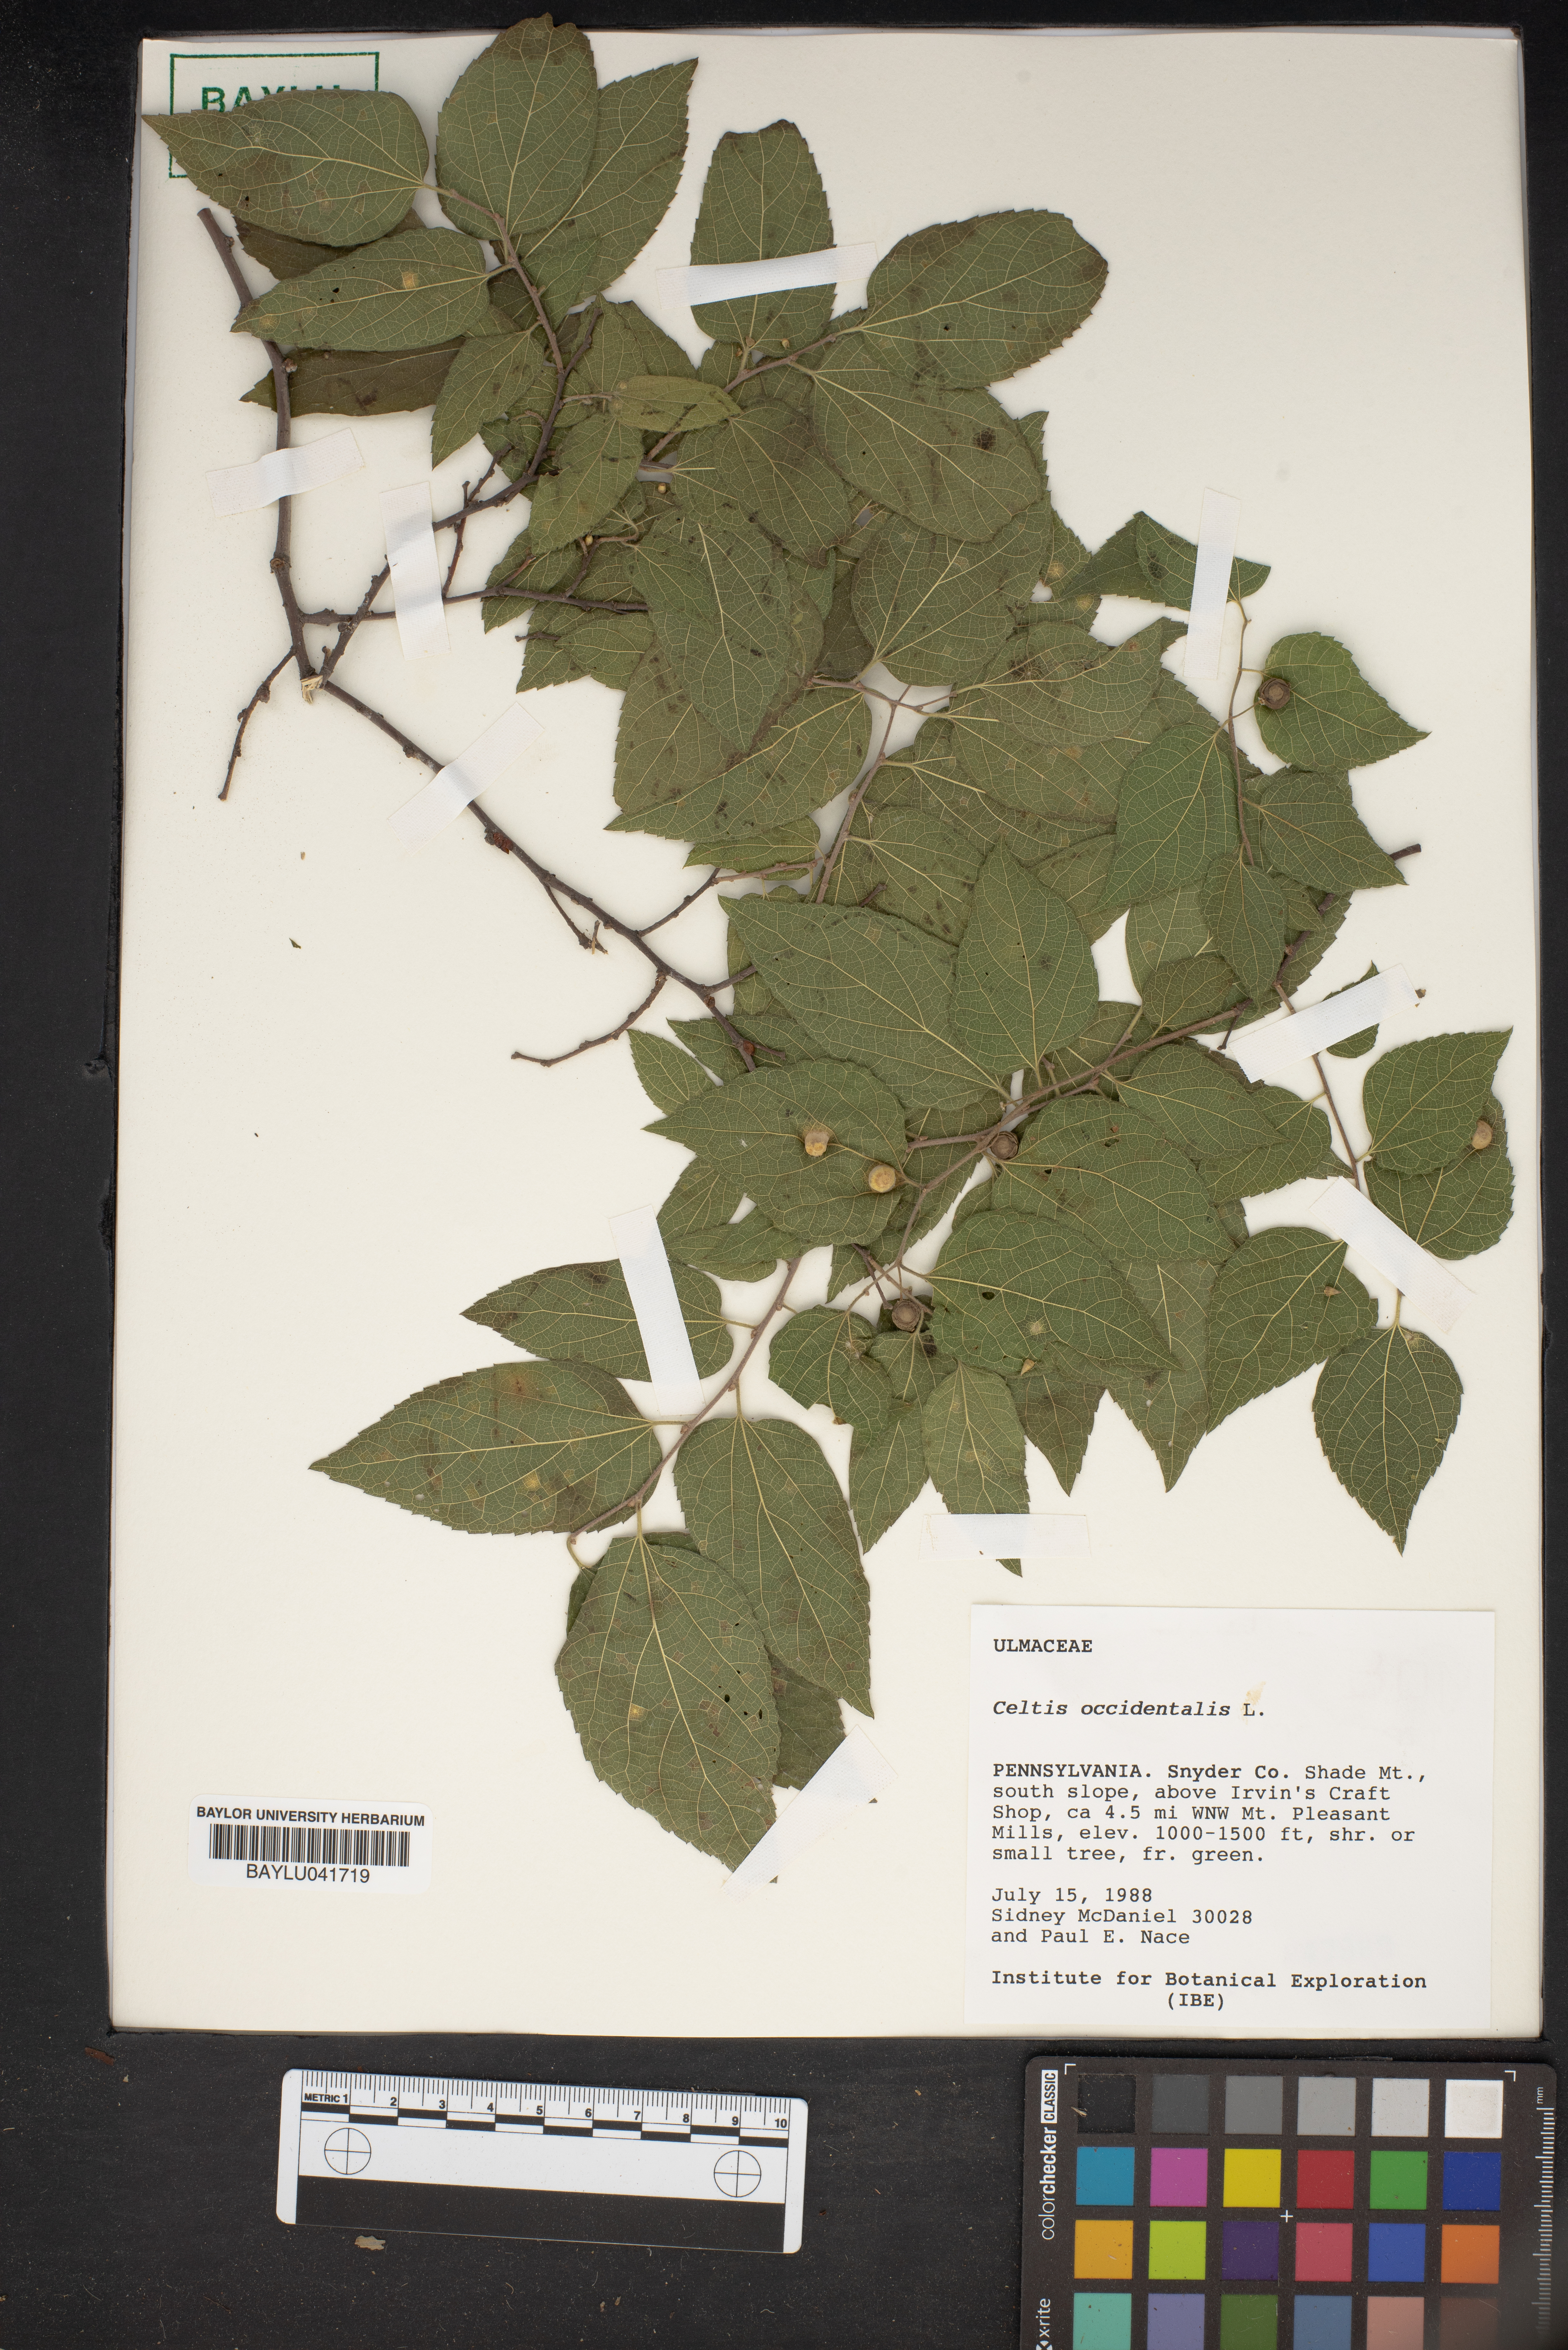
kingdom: Plantae
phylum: Tracheophyta
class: Magnoliopsida
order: Rosales
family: Cannabaceae
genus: Celtis
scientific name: Celtis occidentalis
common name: Common hackberry
